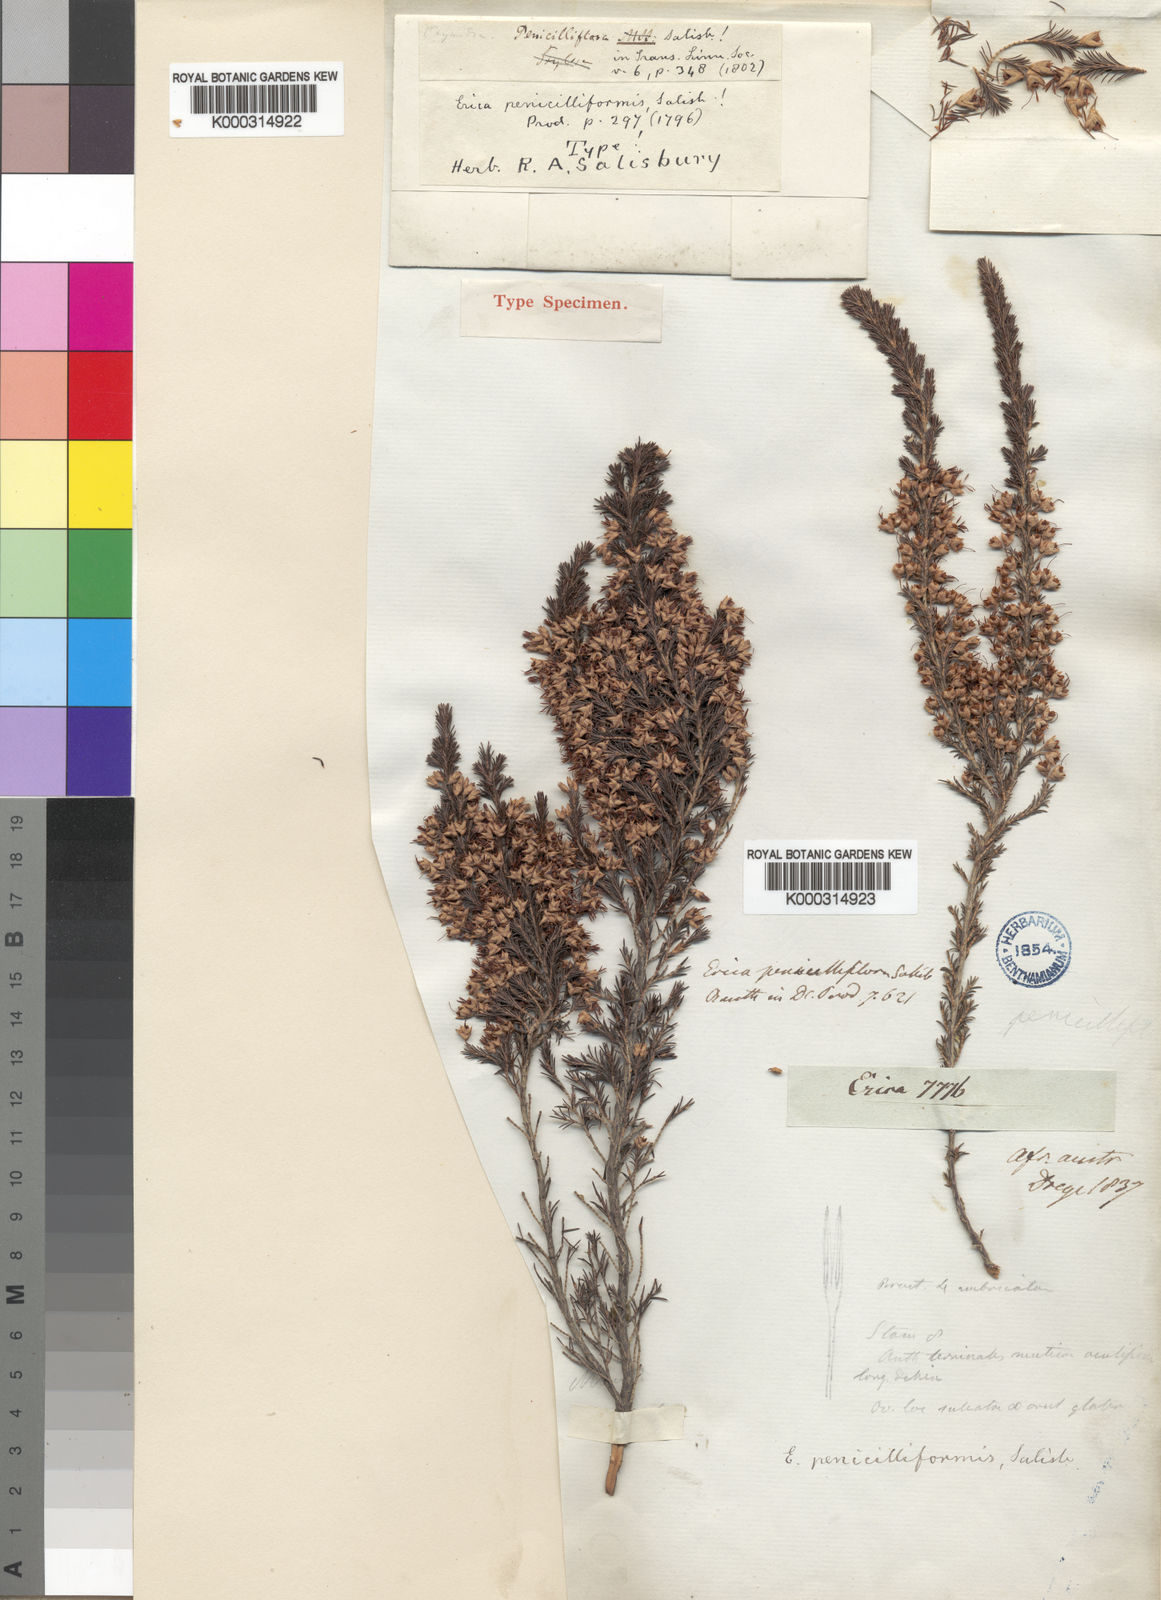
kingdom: Plantae
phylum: Tracheophyta
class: Magnoliopsida
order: Ericales
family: Ericaceae
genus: Erica
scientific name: Erica penicilliformis
